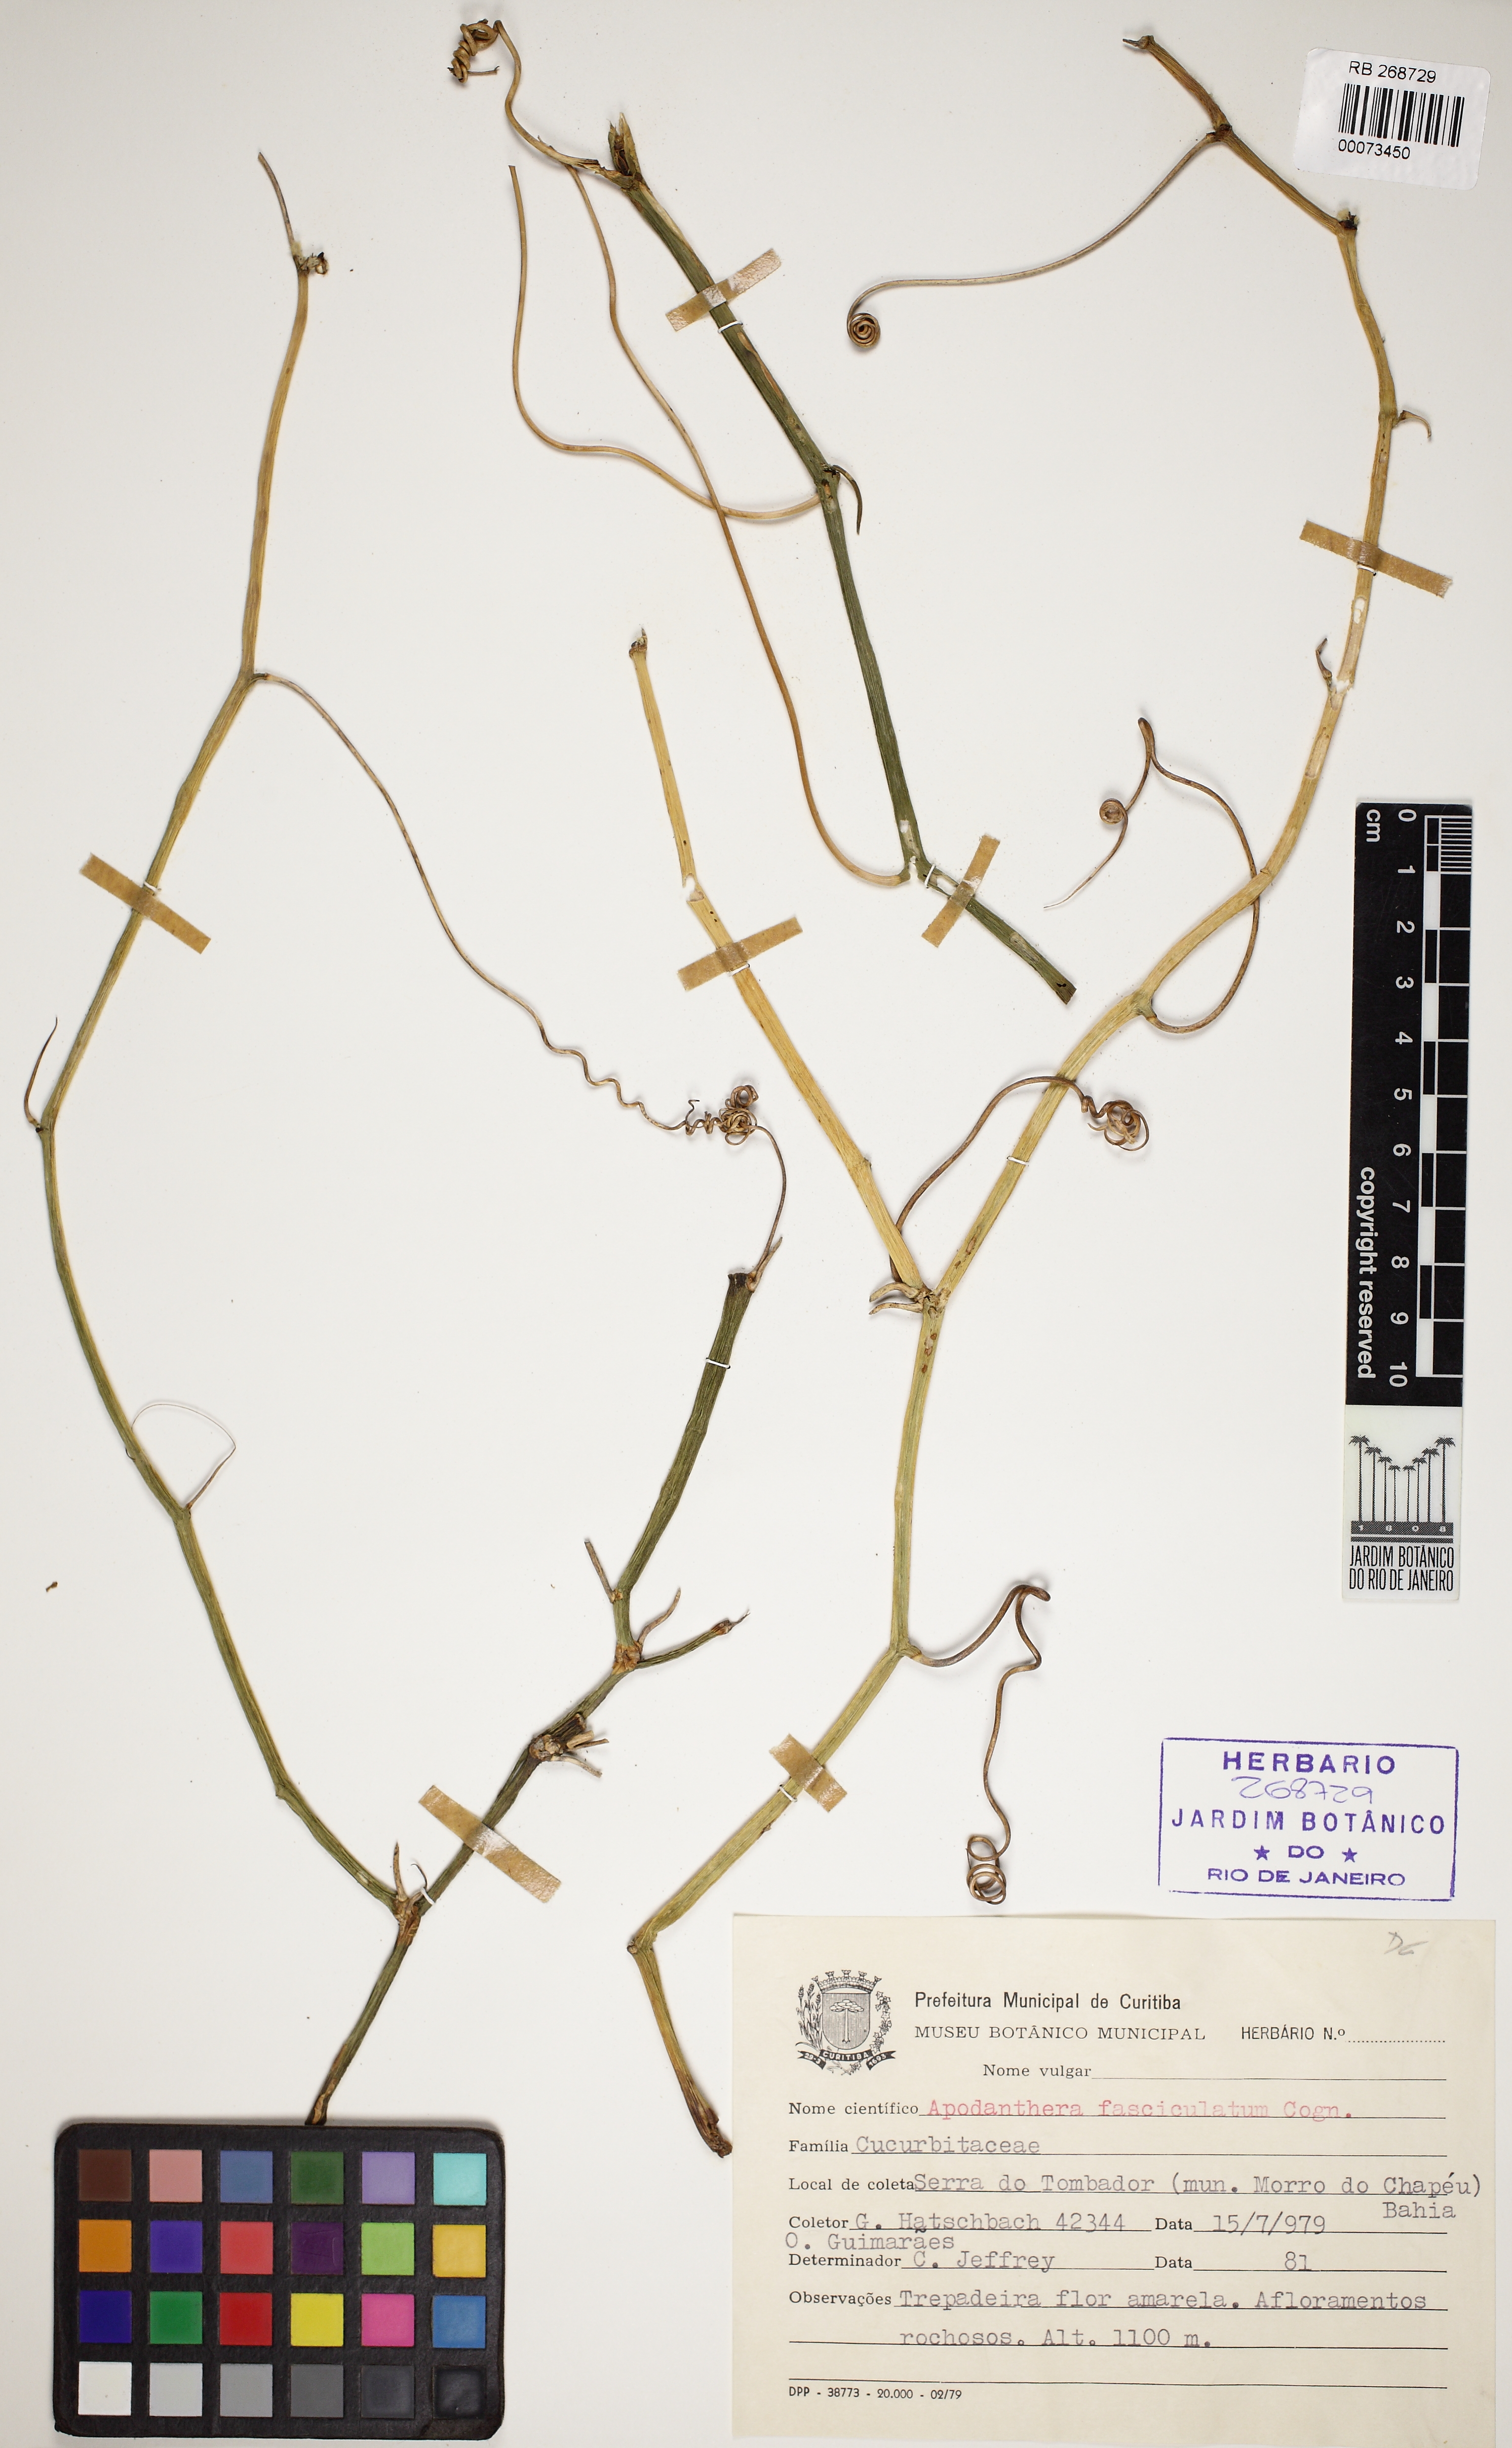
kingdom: Plantae
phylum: Tracheophyta
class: Magnoliopsida
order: Cucurbitales
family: Cucurbitaceae
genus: Apodanthera
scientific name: Apodanthera fasciculata
